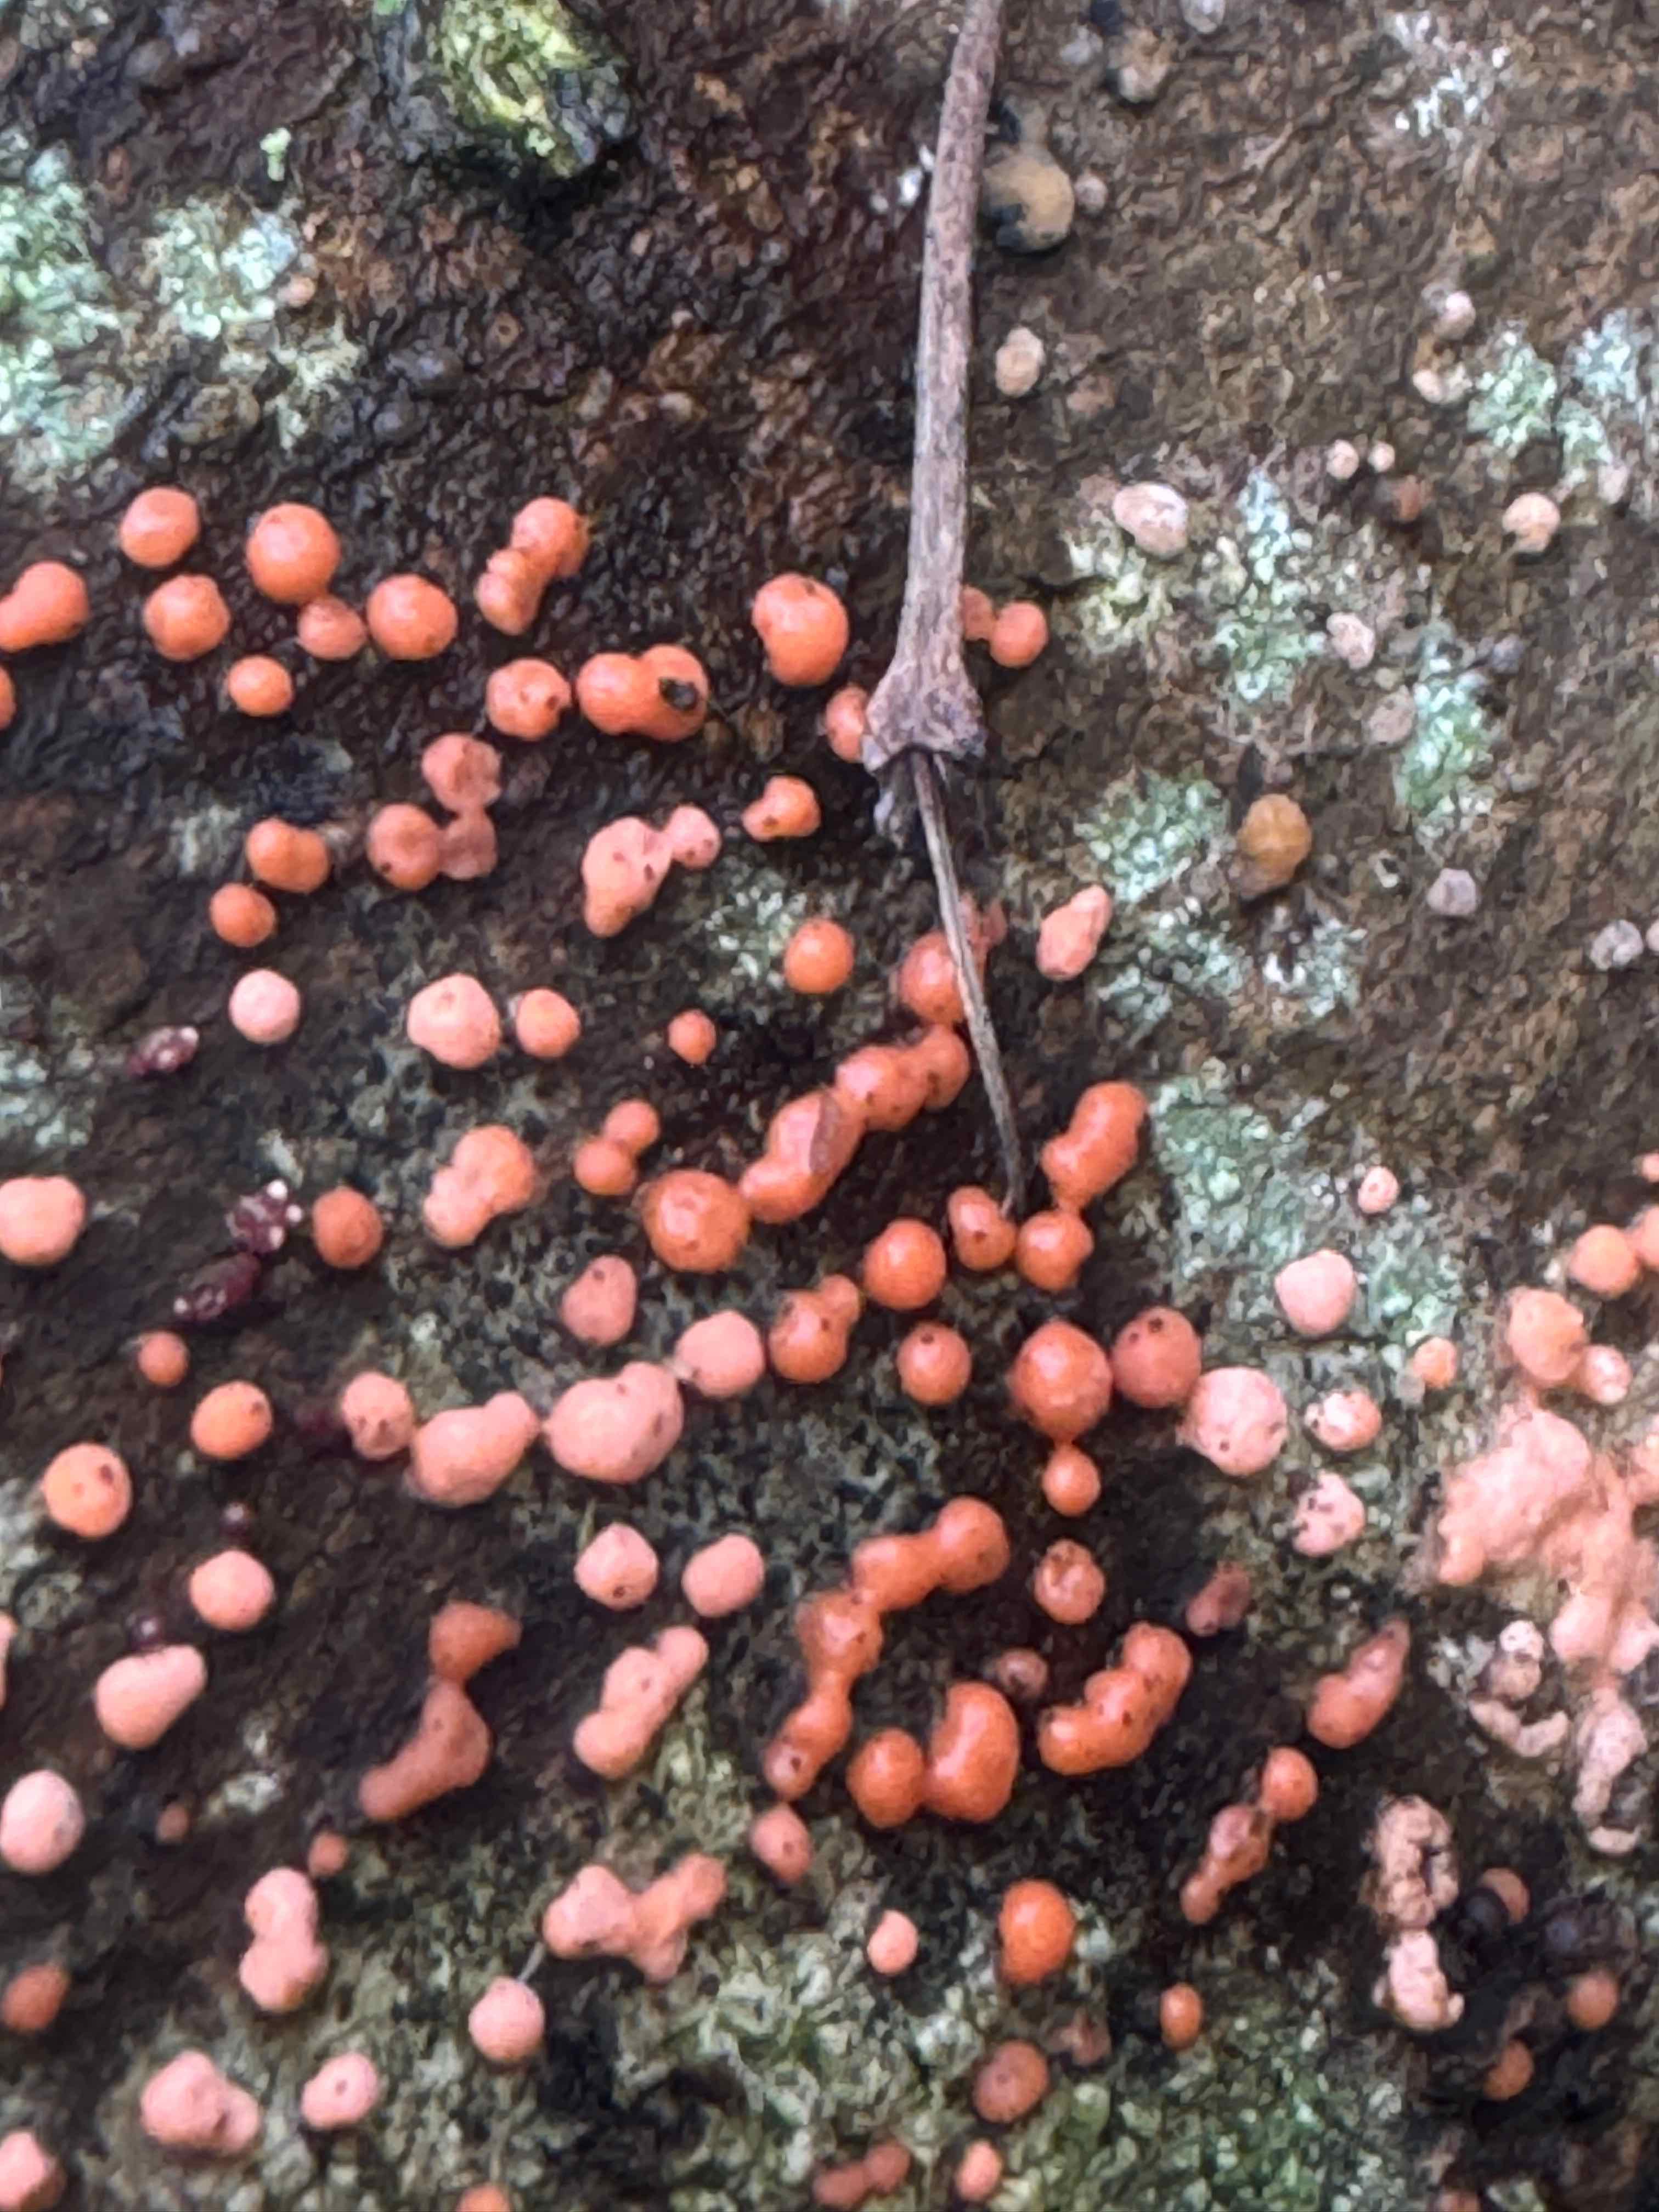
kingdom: Fungi
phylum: Ascomycota
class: Sordariomycetes
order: Hypocreales
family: Nectriaceae
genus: Nectria
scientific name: Nectria cinnabarina
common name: almindelig cinnobersvamp
